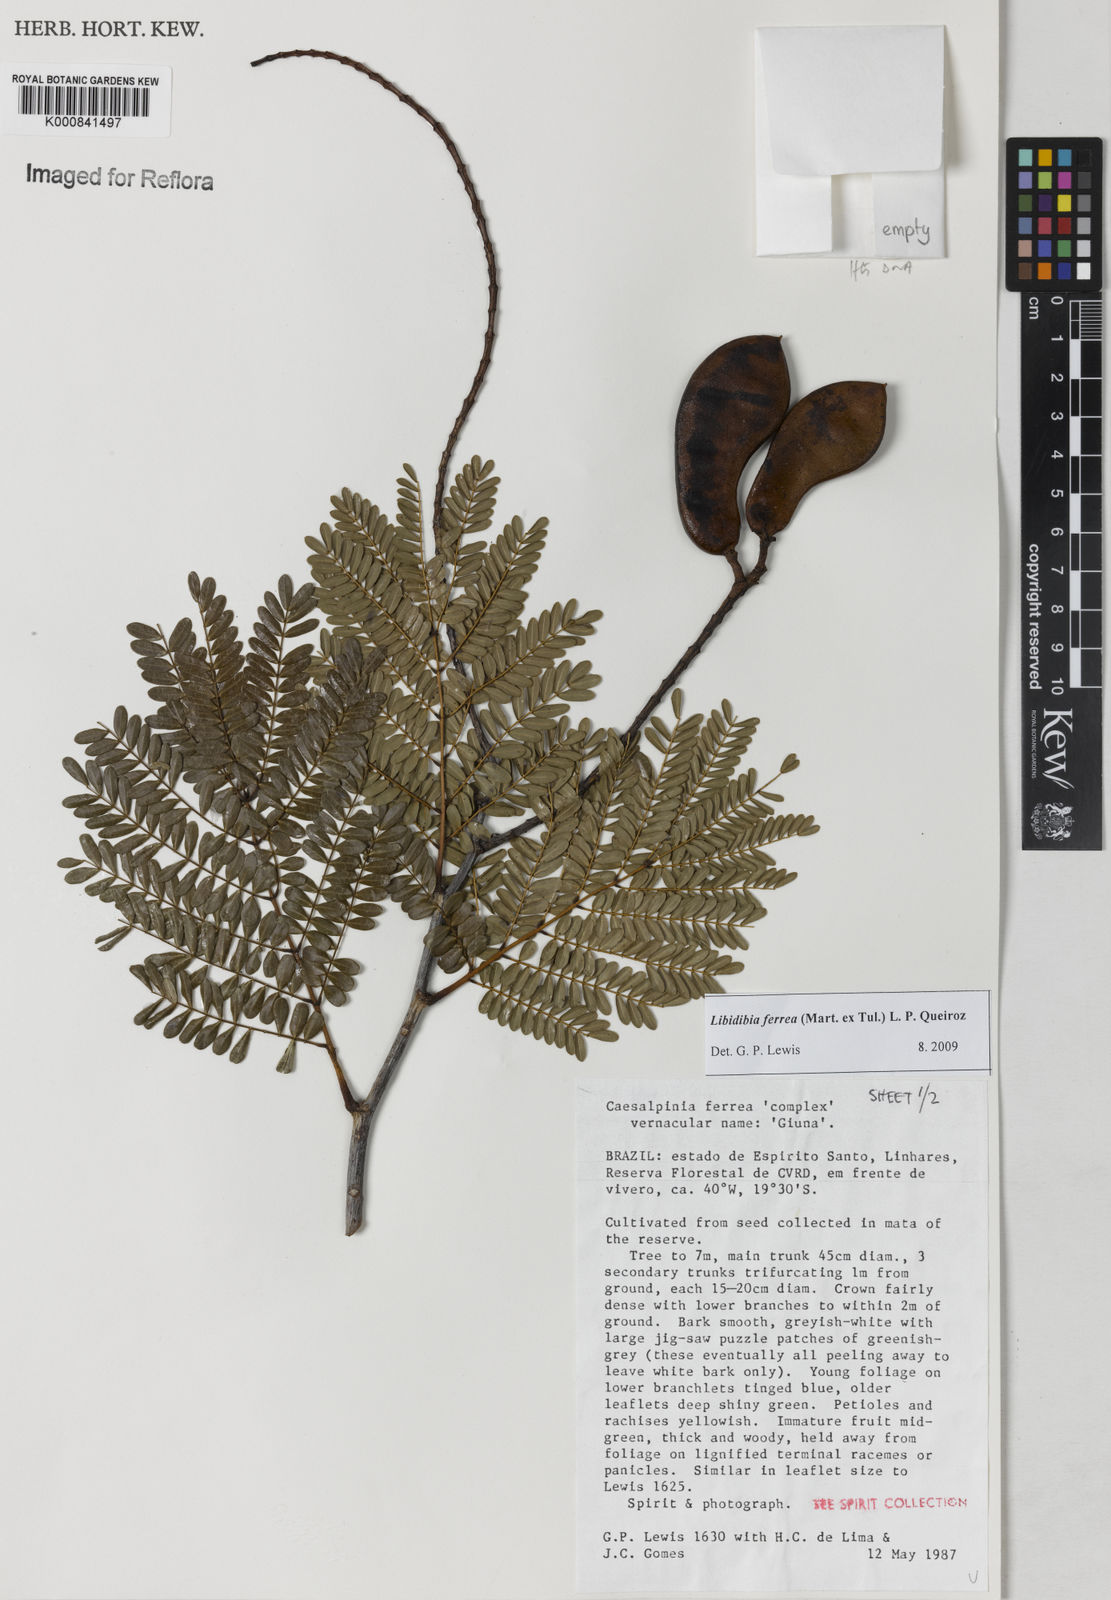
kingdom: Plantae
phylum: Tracheophyta
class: Magnoliopsida
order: Fabales
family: Fabaceae
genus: Libidibia
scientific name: Libidibia ferrea
